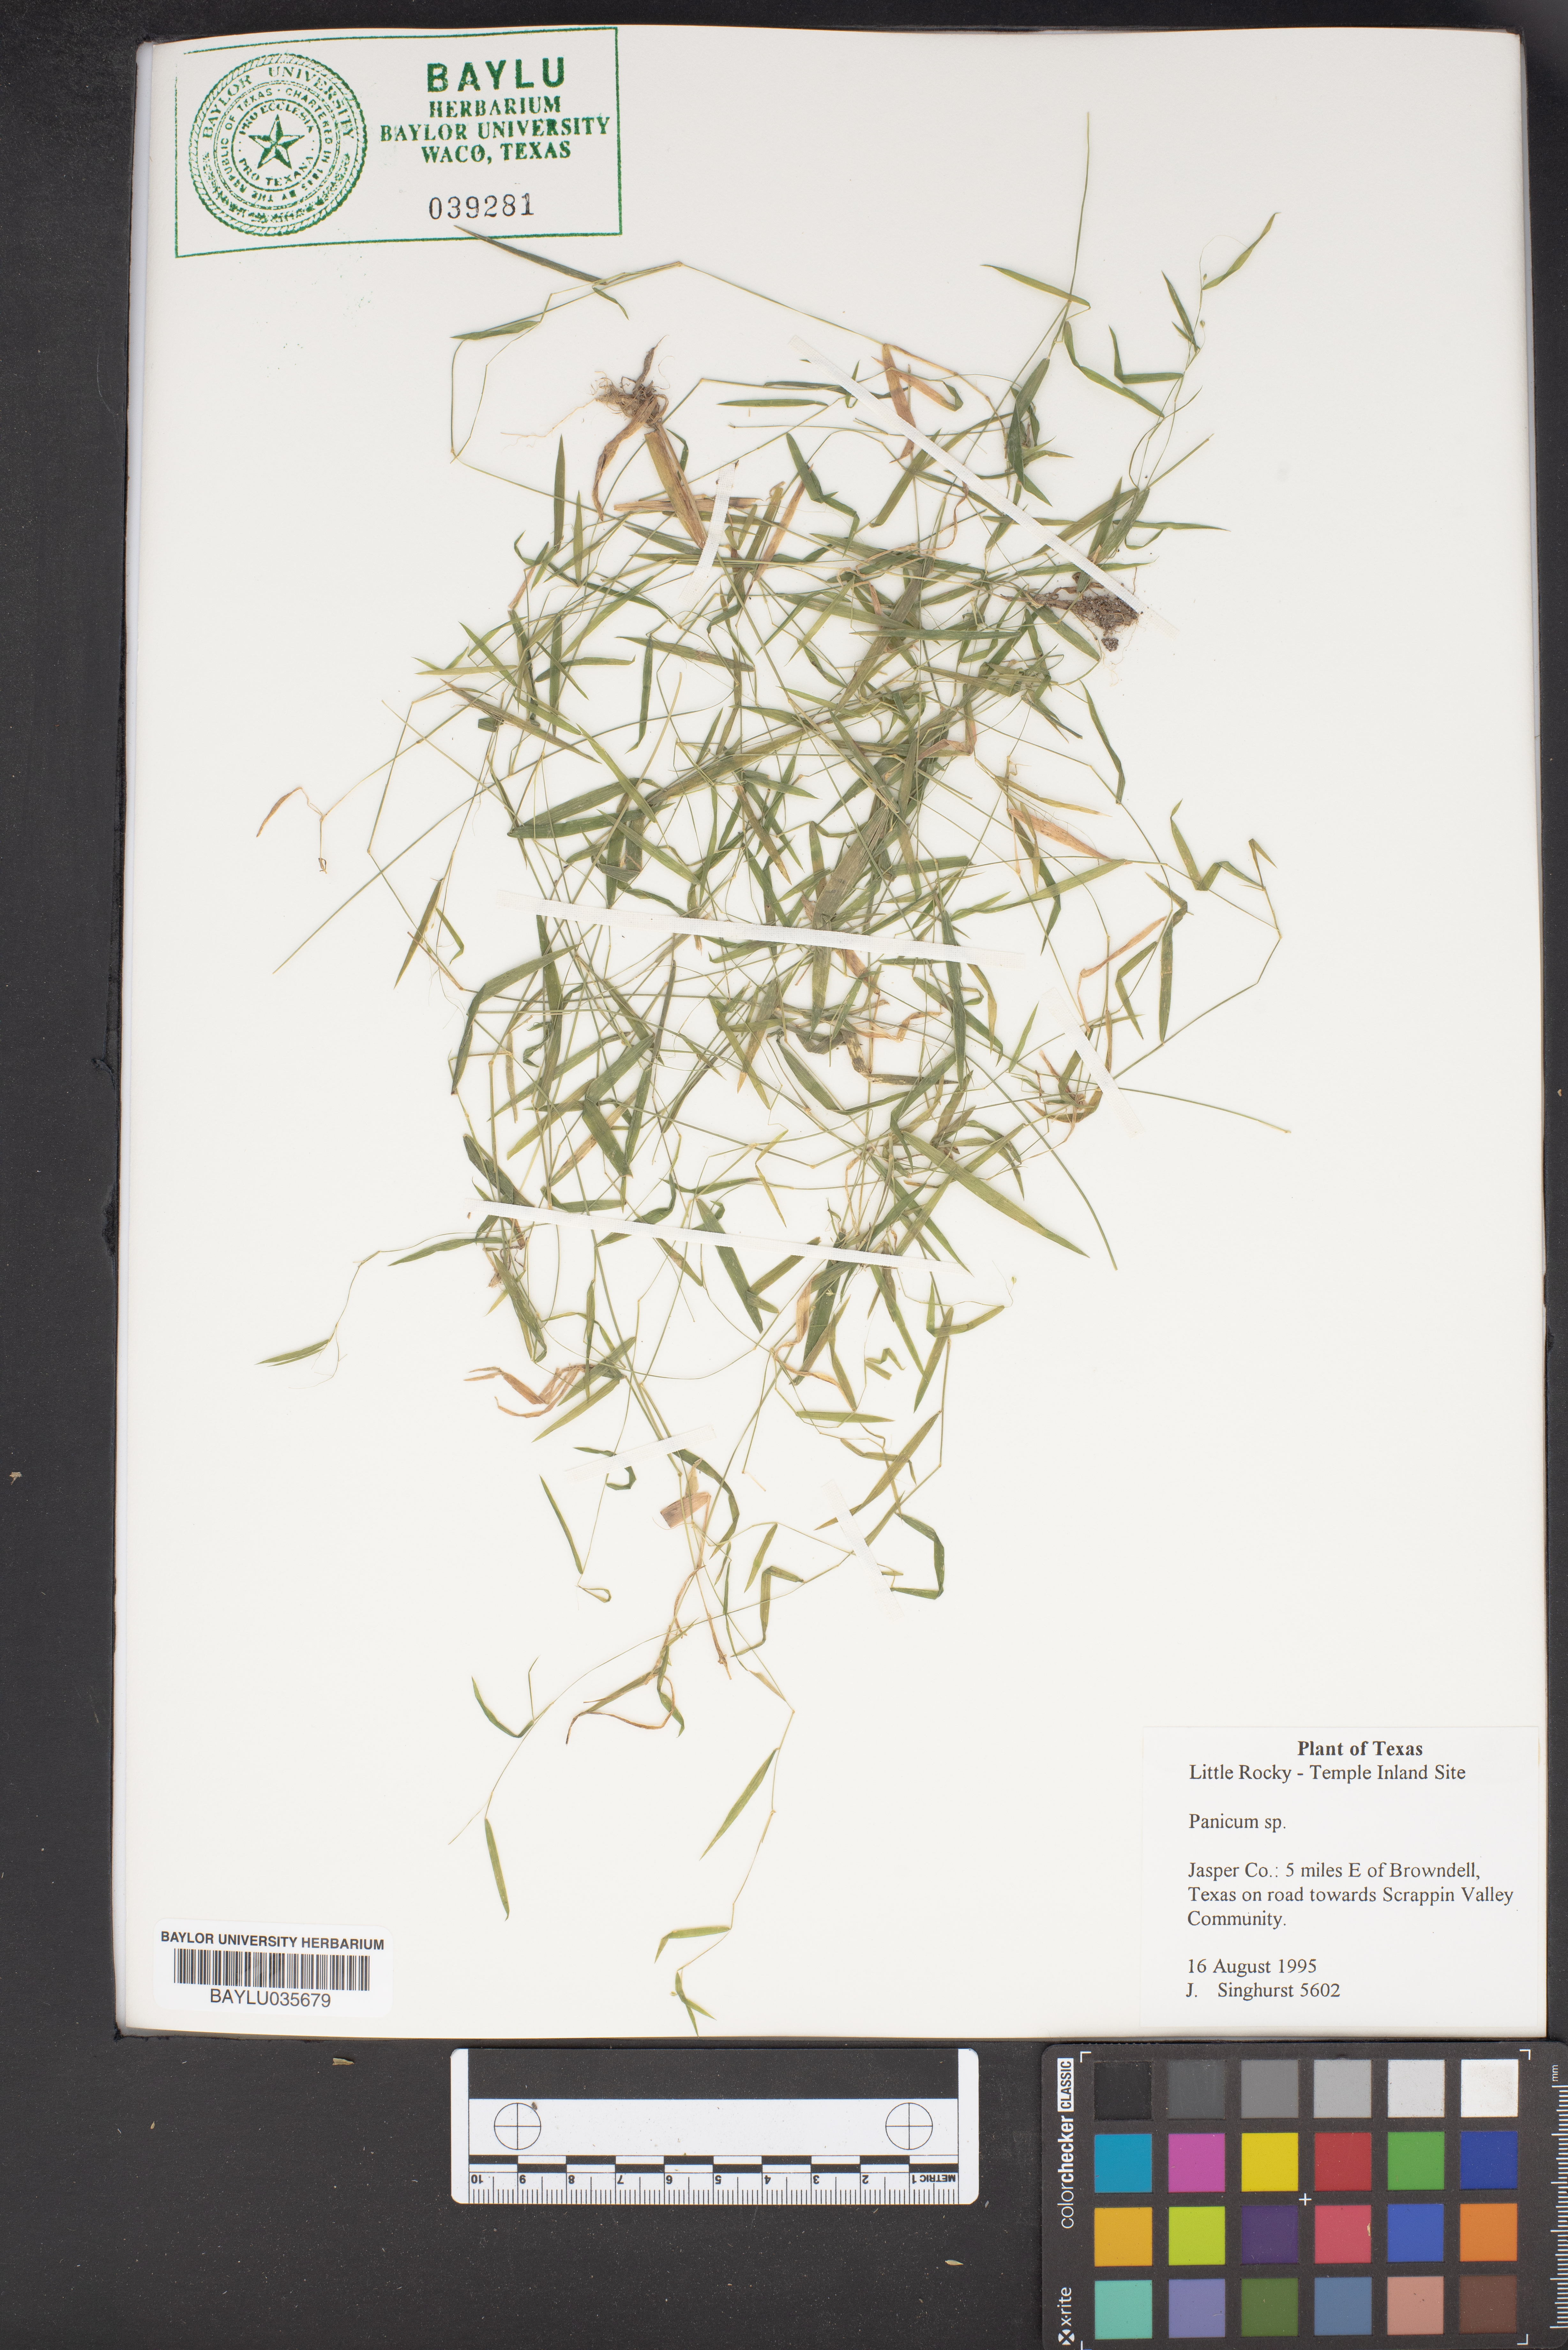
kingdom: Plantae
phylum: Tracheophyta
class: Liliopsida
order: Poales
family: Poaceae
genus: Panicum
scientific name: Panicum
